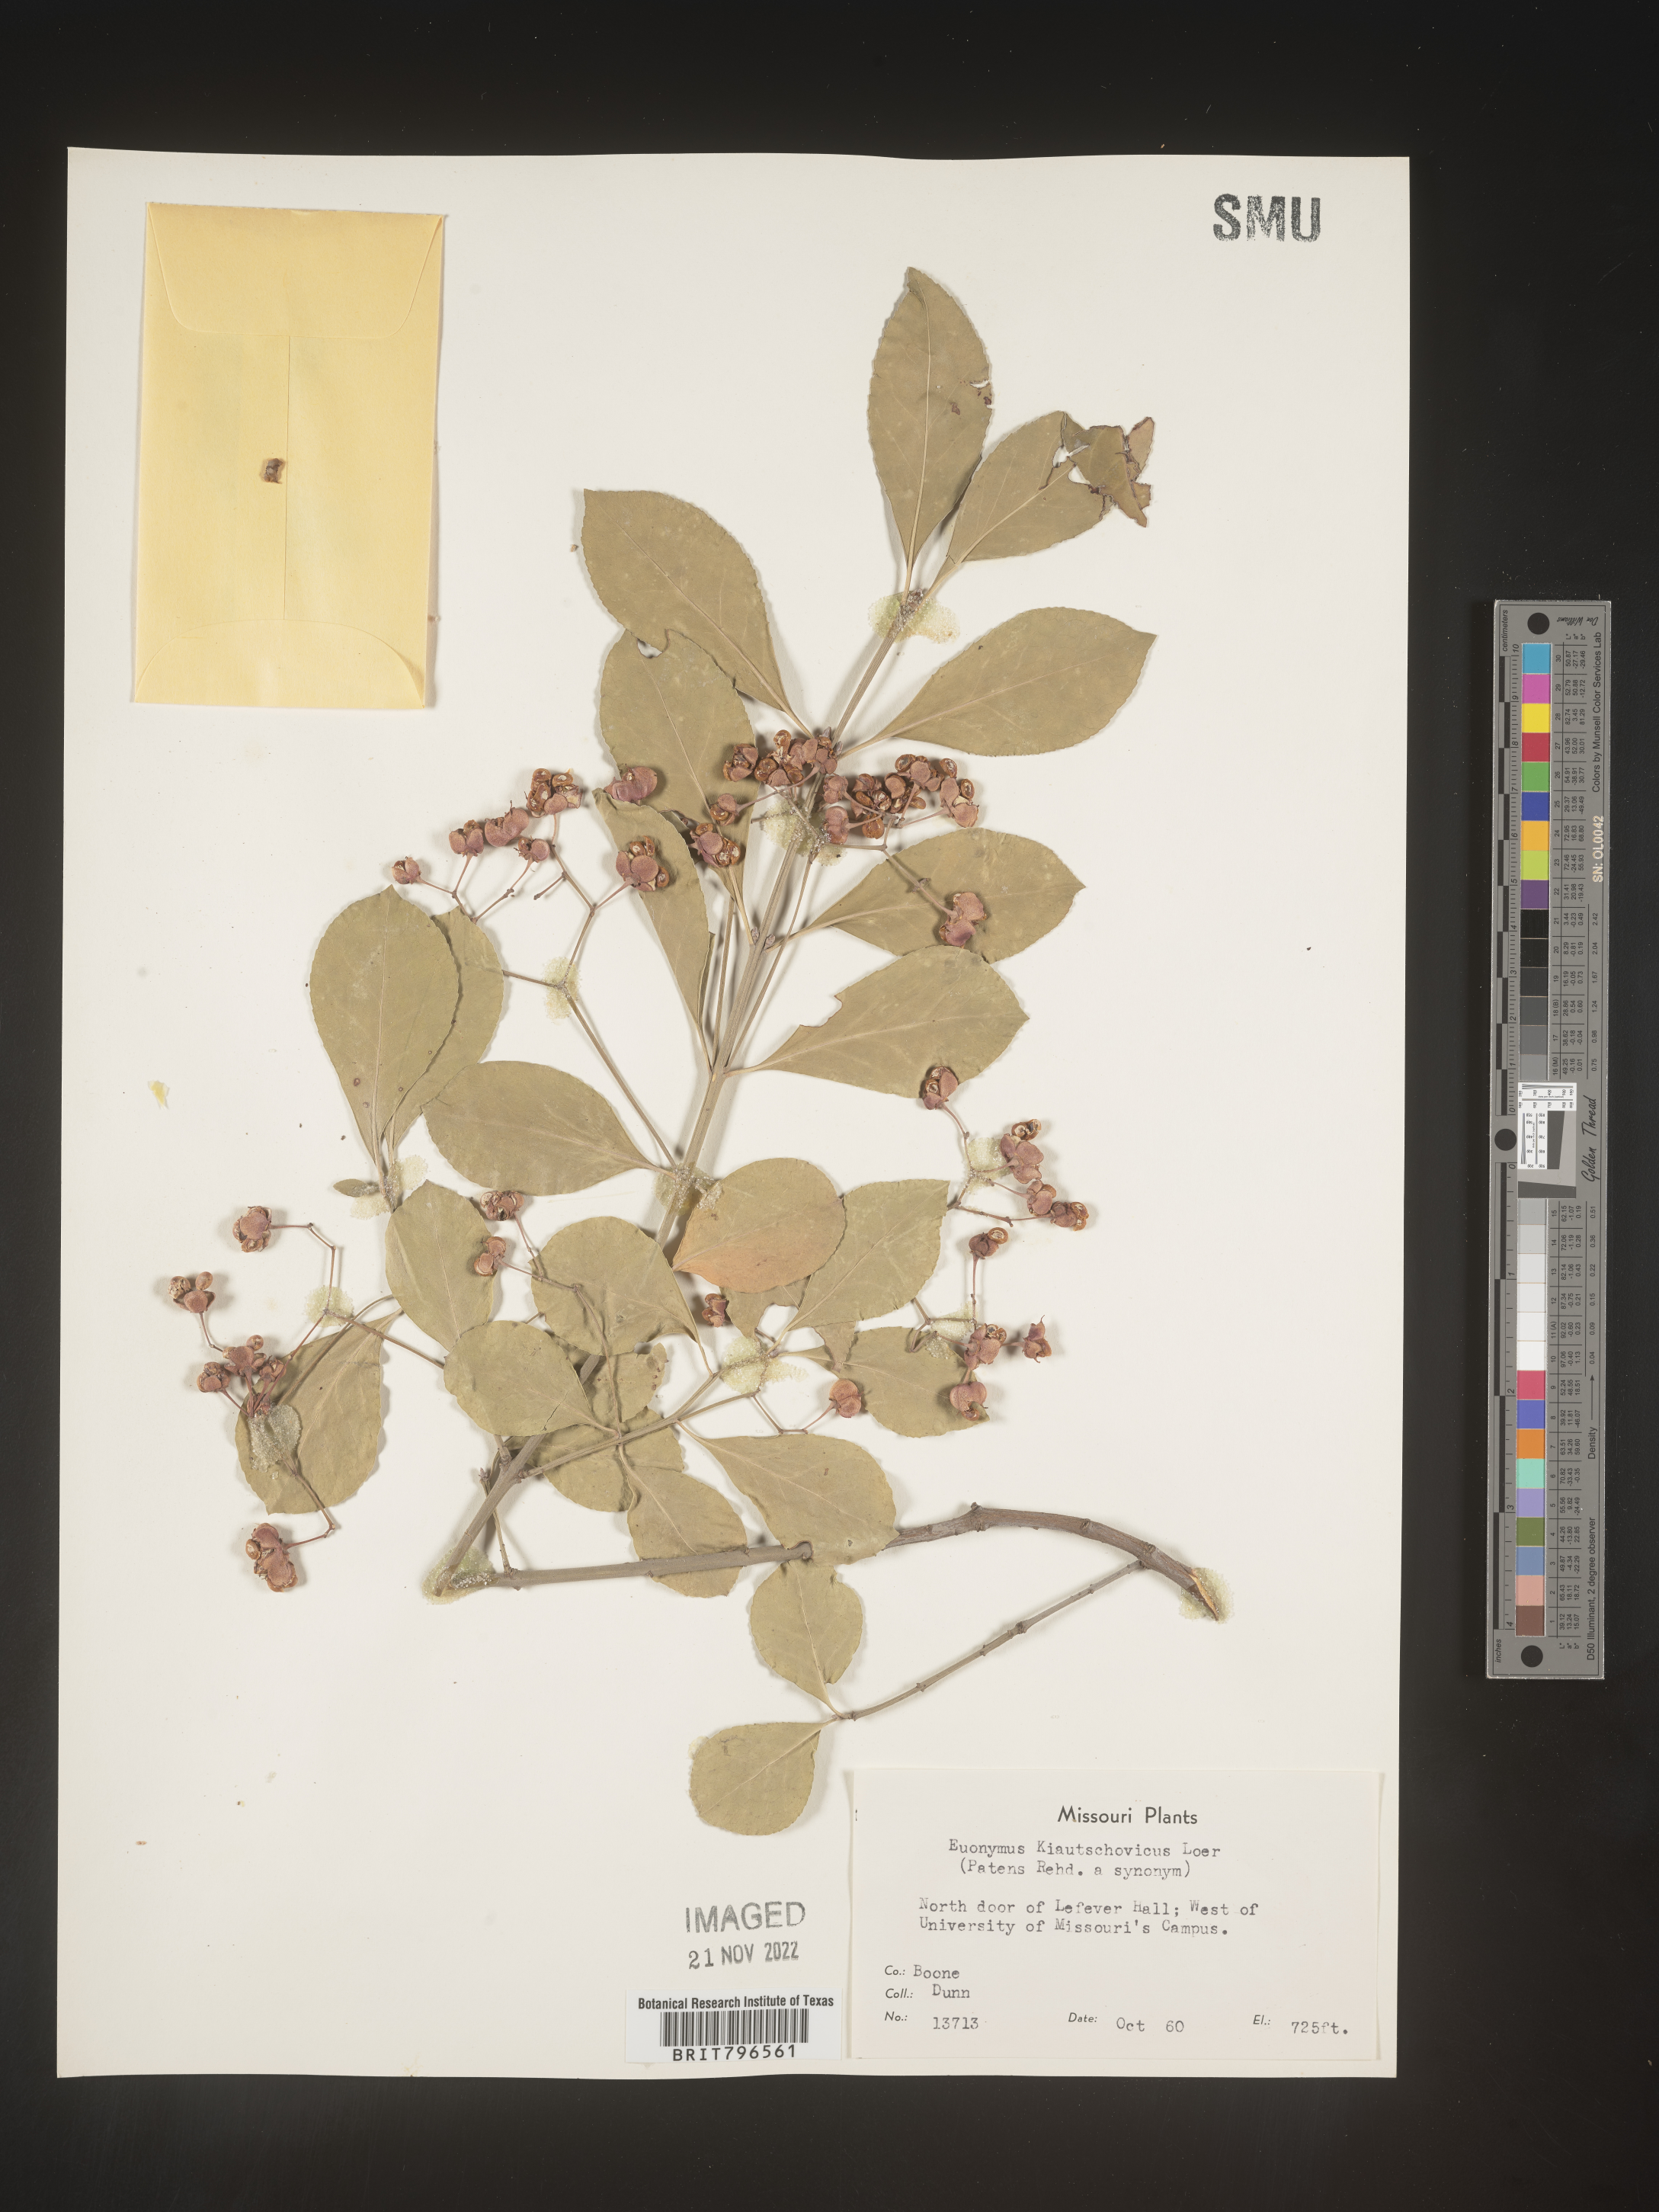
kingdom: Plantae
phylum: Tracheophyta
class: Magnoliopsida
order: Celastrales
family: Celastraceae
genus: Euonymus
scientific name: Euonymus
